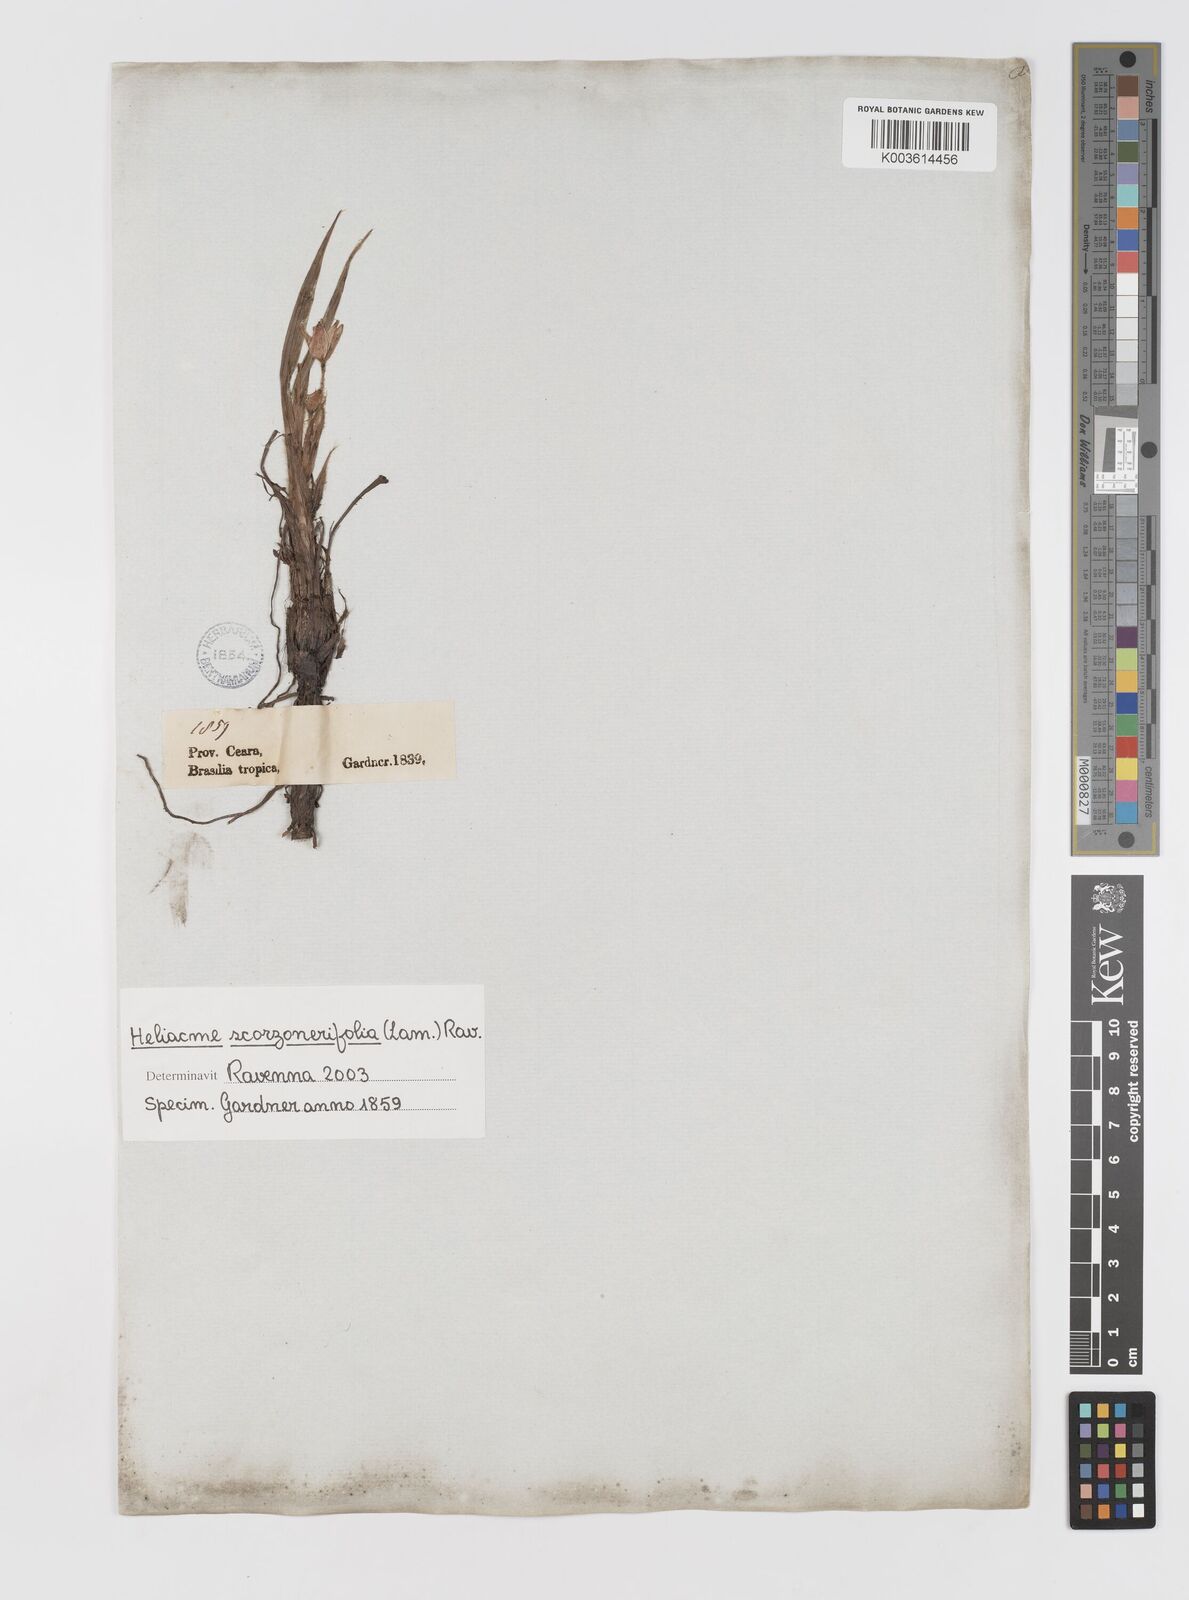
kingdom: Plantae
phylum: Tracheophyta
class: Liliopsida
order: Asparagales
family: Hypoxidaceae
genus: Curculigo
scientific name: Curculigo scorzonerifolia
